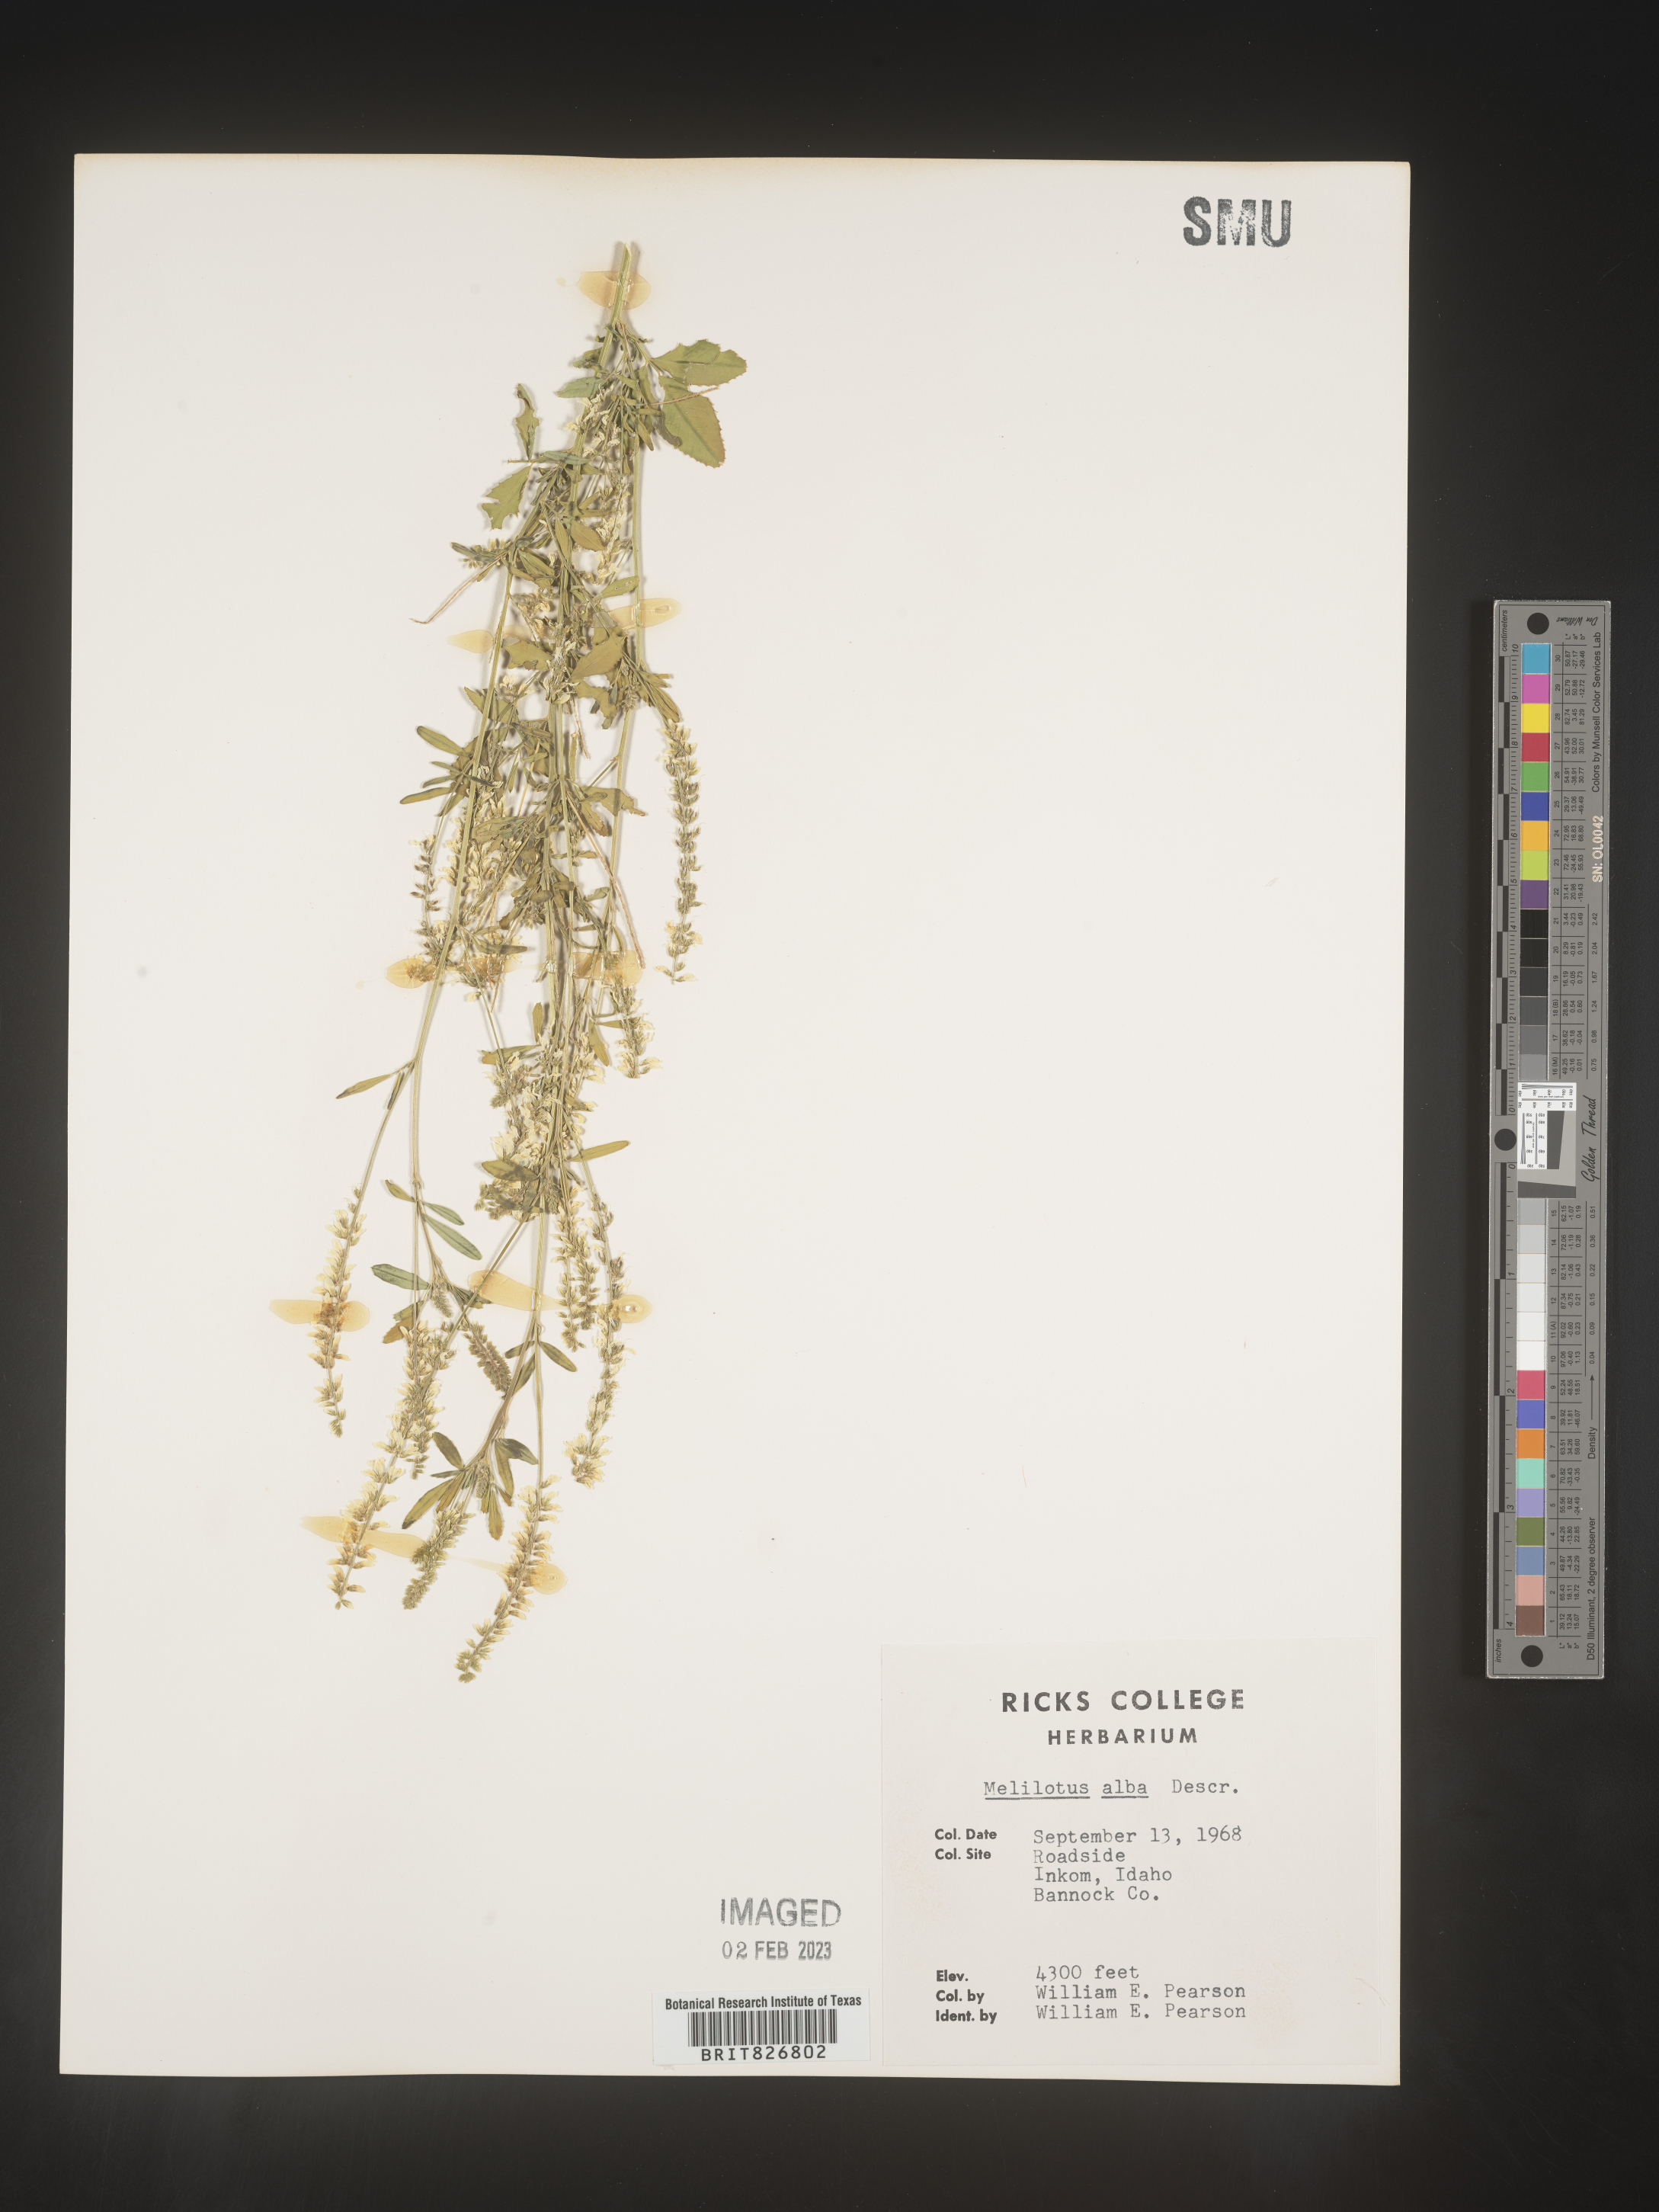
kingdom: Plantae
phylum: Tracheophyta
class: Magnoliopsida
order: Fabales
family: Fabaceae
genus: Melilotus
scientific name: Melilotus albus
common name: White melilot
